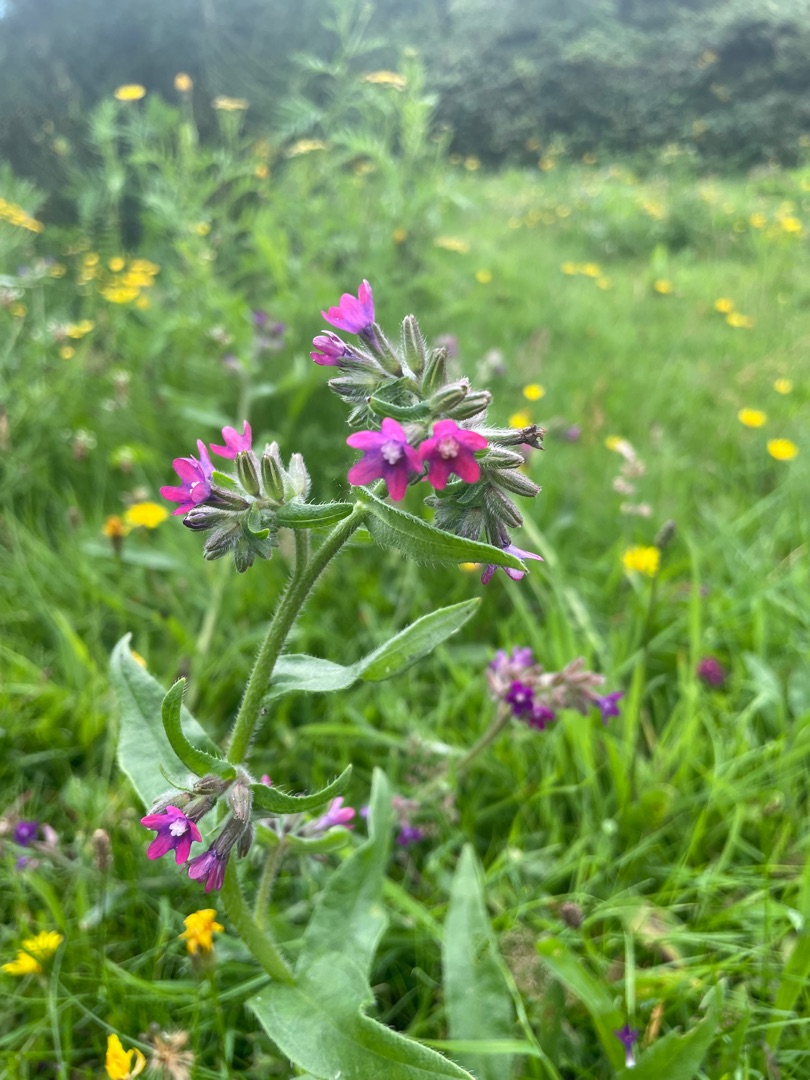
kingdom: Plantae
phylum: Tracheophyta
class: Magnoliopsida
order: Boraginales
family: Boraginaceae
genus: Anchusa
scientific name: Anchusa officinalis
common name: Læge-oksetunge
